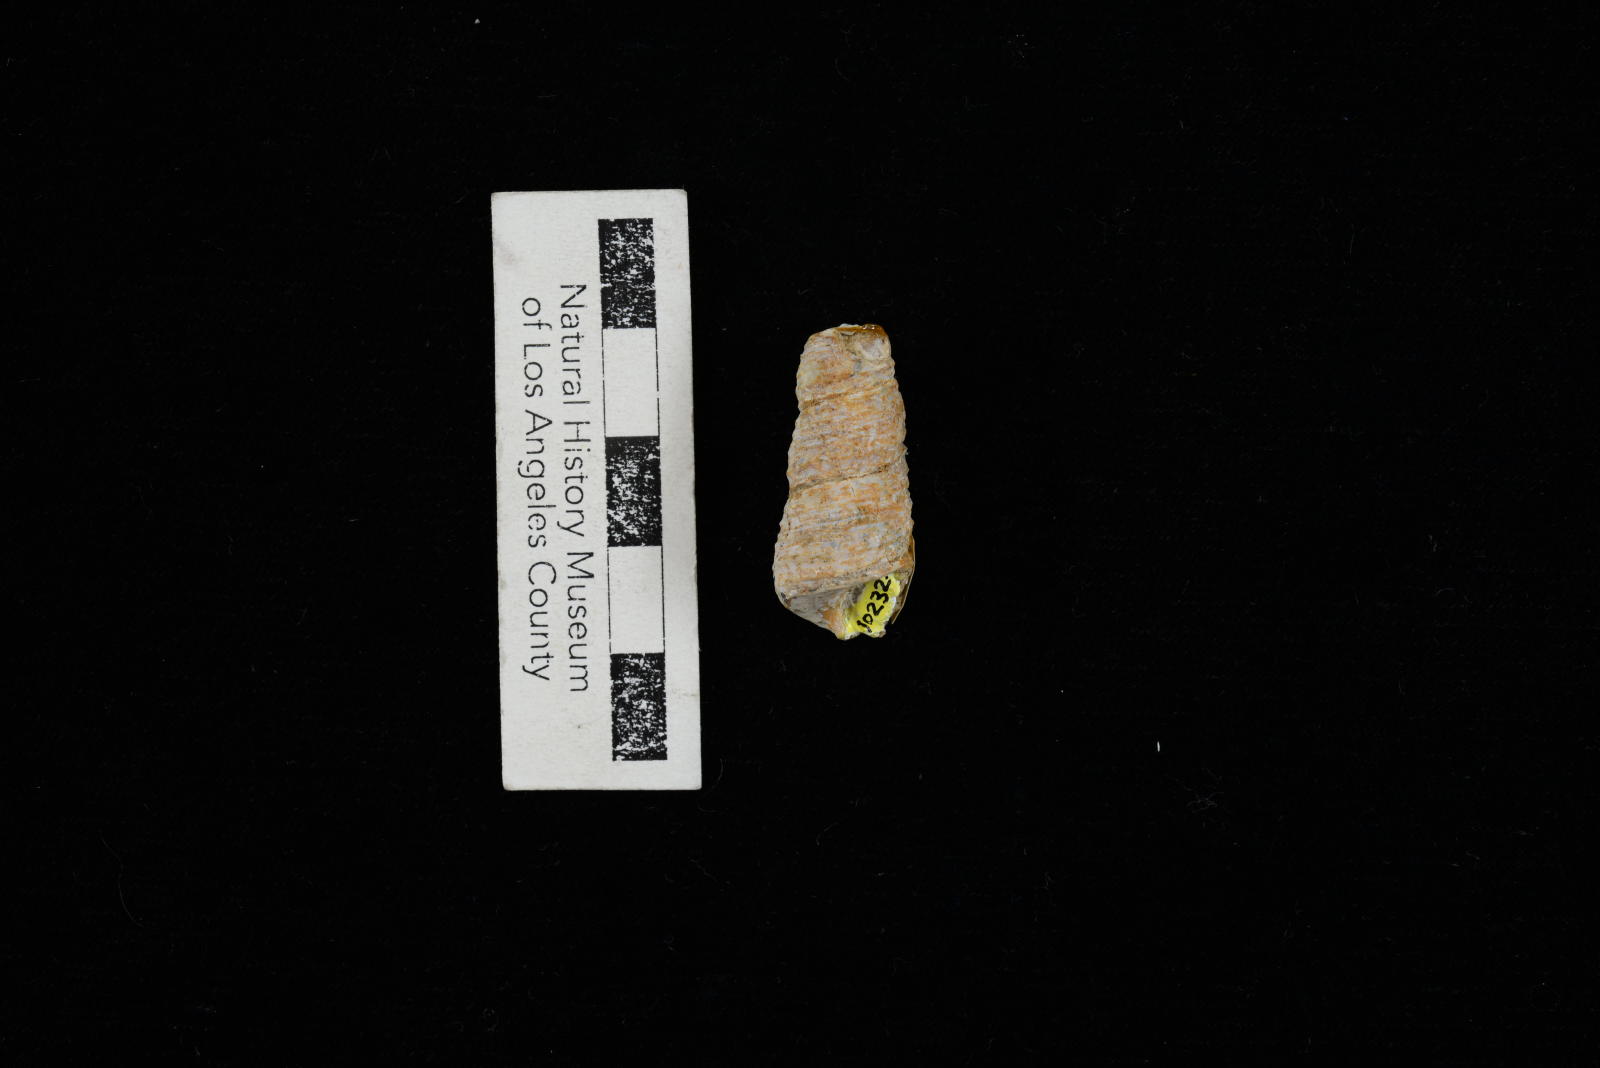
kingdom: Animalia
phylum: Mollusca
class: Gastropoda
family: Turritellidae
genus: Turritella
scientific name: Turritella
